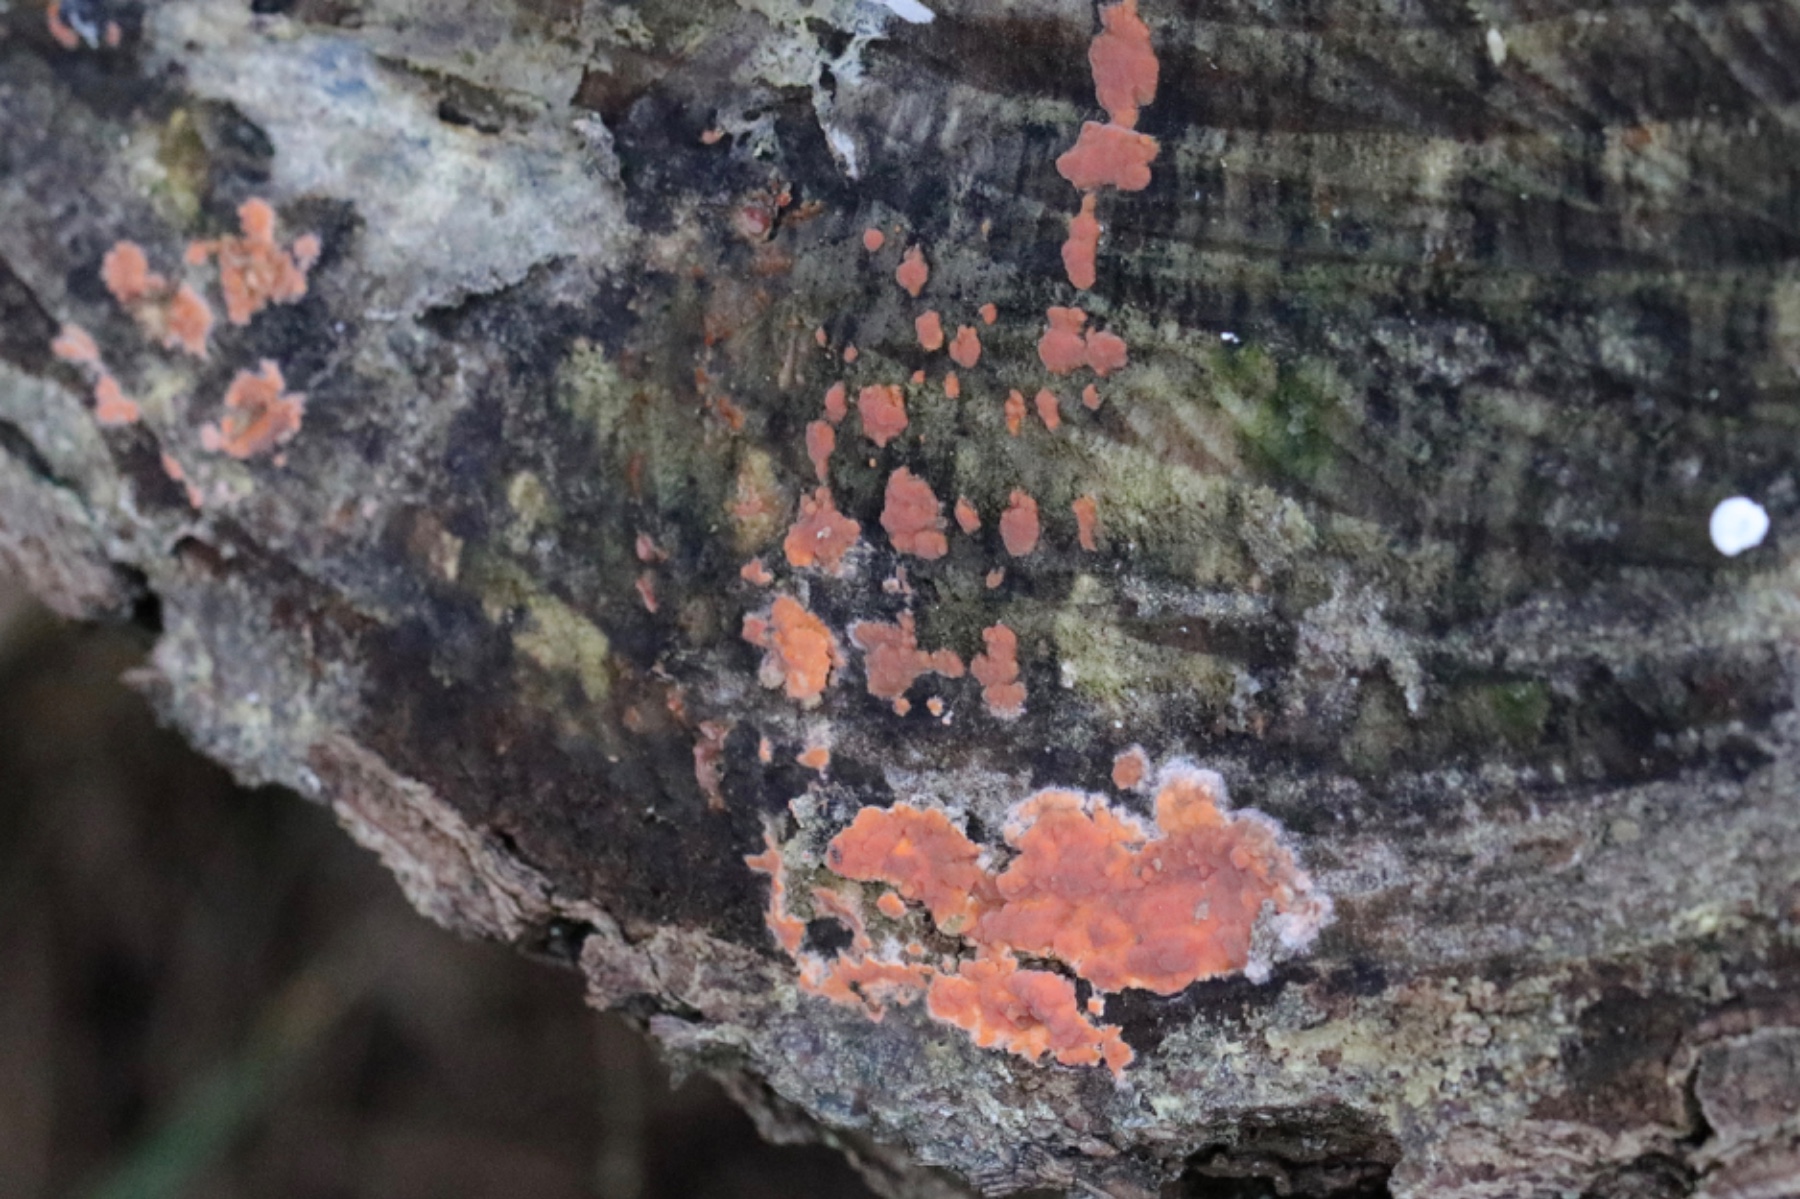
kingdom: Fungi
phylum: Basidiomycota
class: Agaricomycetes
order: Russulales
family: Peniophoraceae
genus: Peniophora
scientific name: Peniophora incarnata
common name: laksefarvet voksskind
